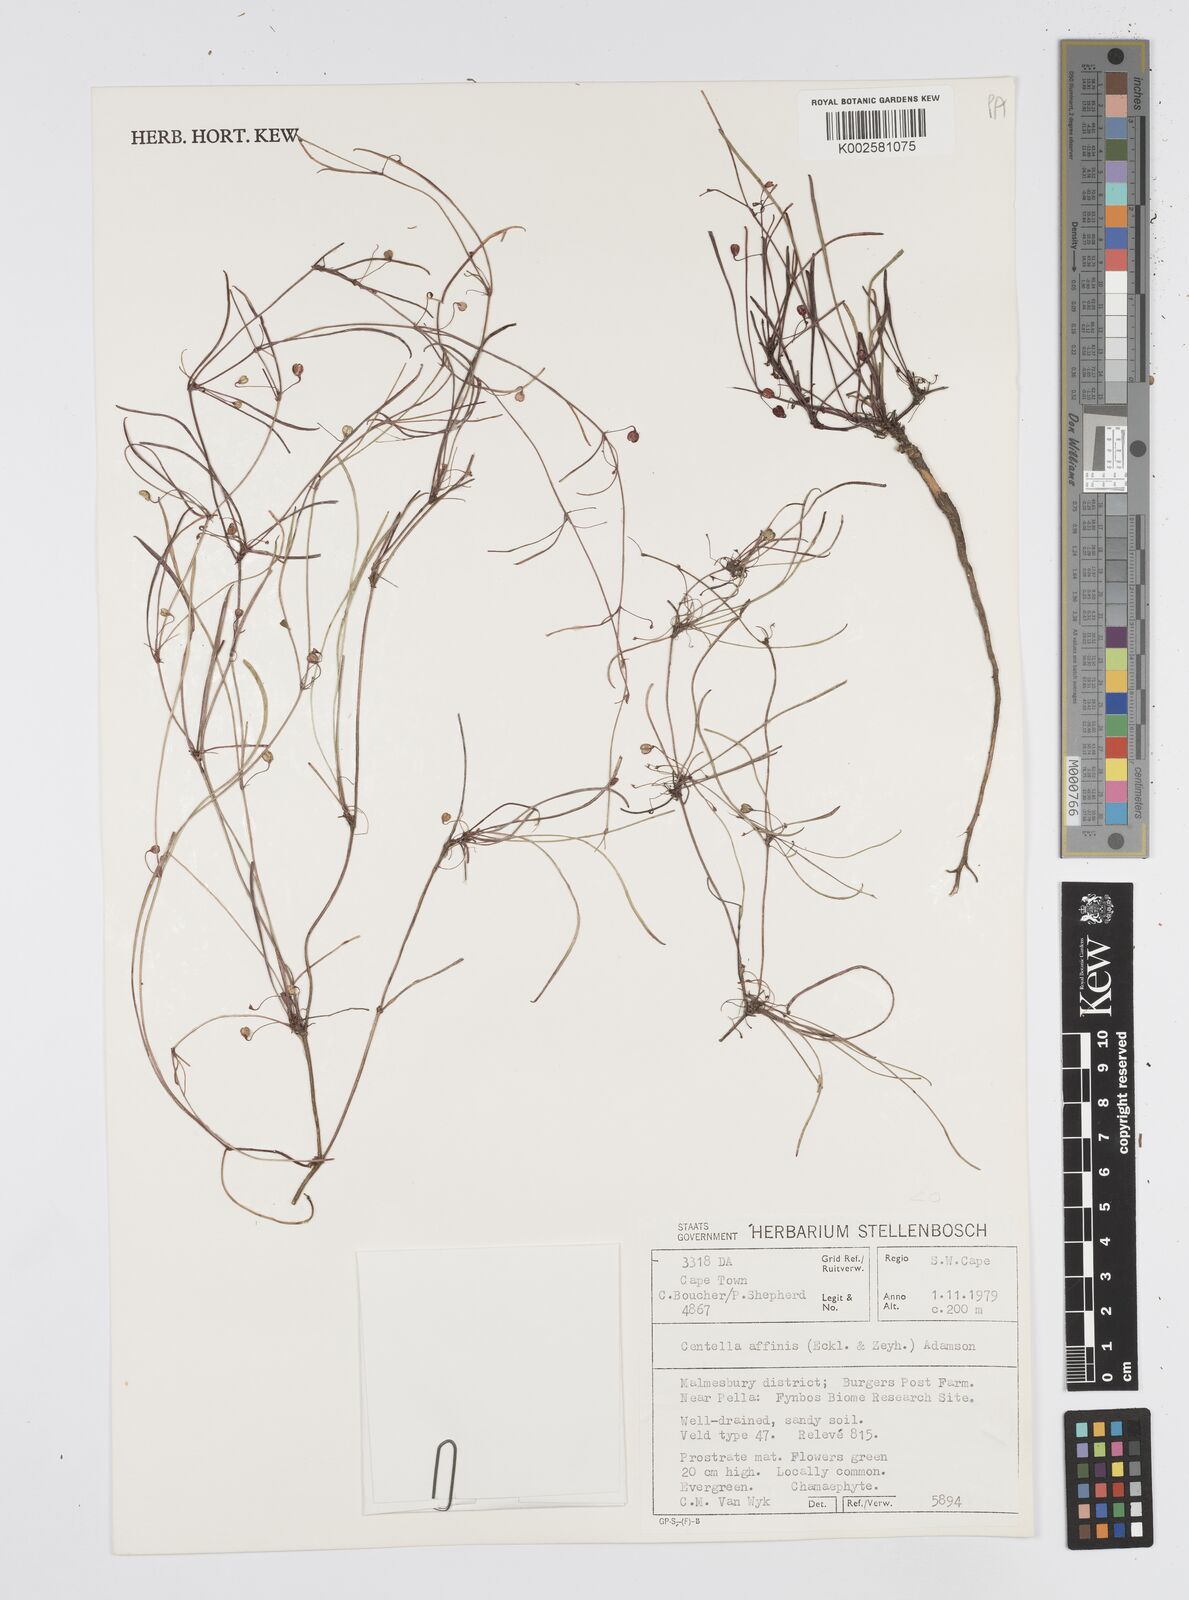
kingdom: Plantae
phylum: Tracheophyta
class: Magnoliopsida
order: Apiales
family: Apiaceae
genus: Centella
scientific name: Centella affinis
